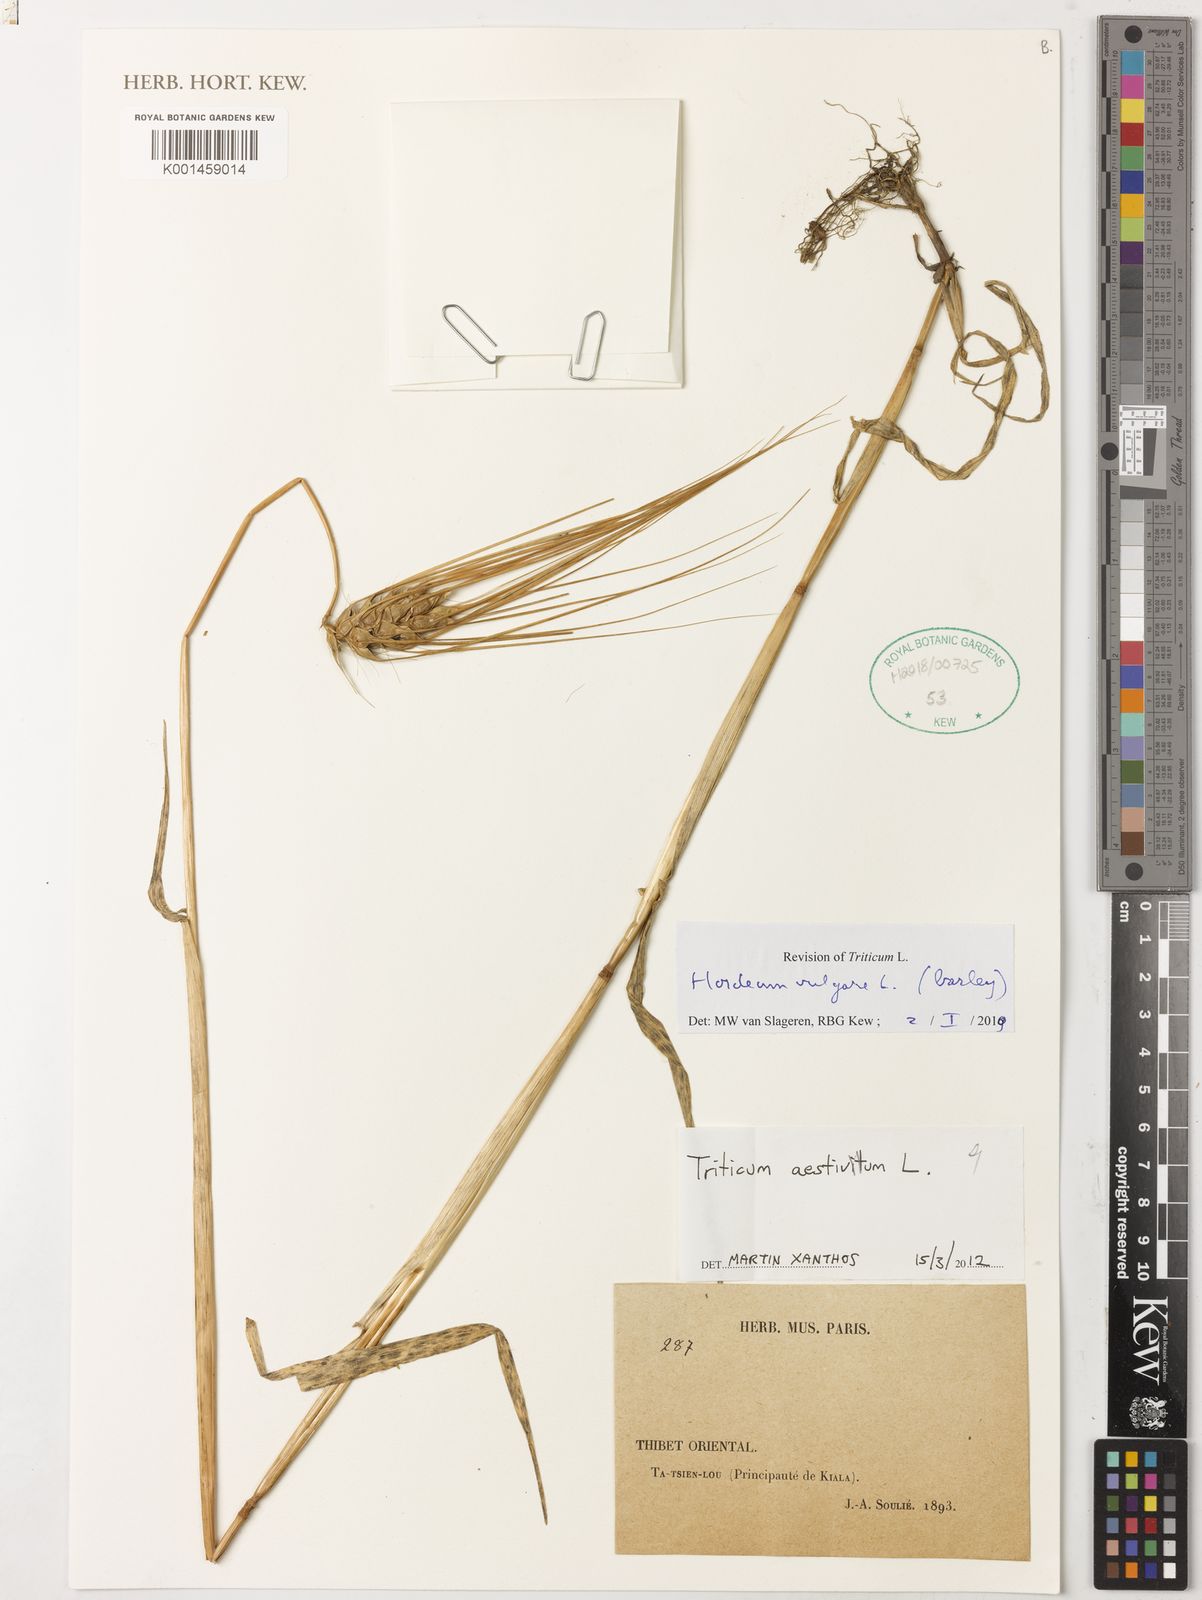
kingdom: Plantae
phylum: Tracheophyta
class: Liliopsida
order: Poales
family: Poaceae
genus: Hordeum
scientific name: Hordeum vulgare
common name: Common barley
